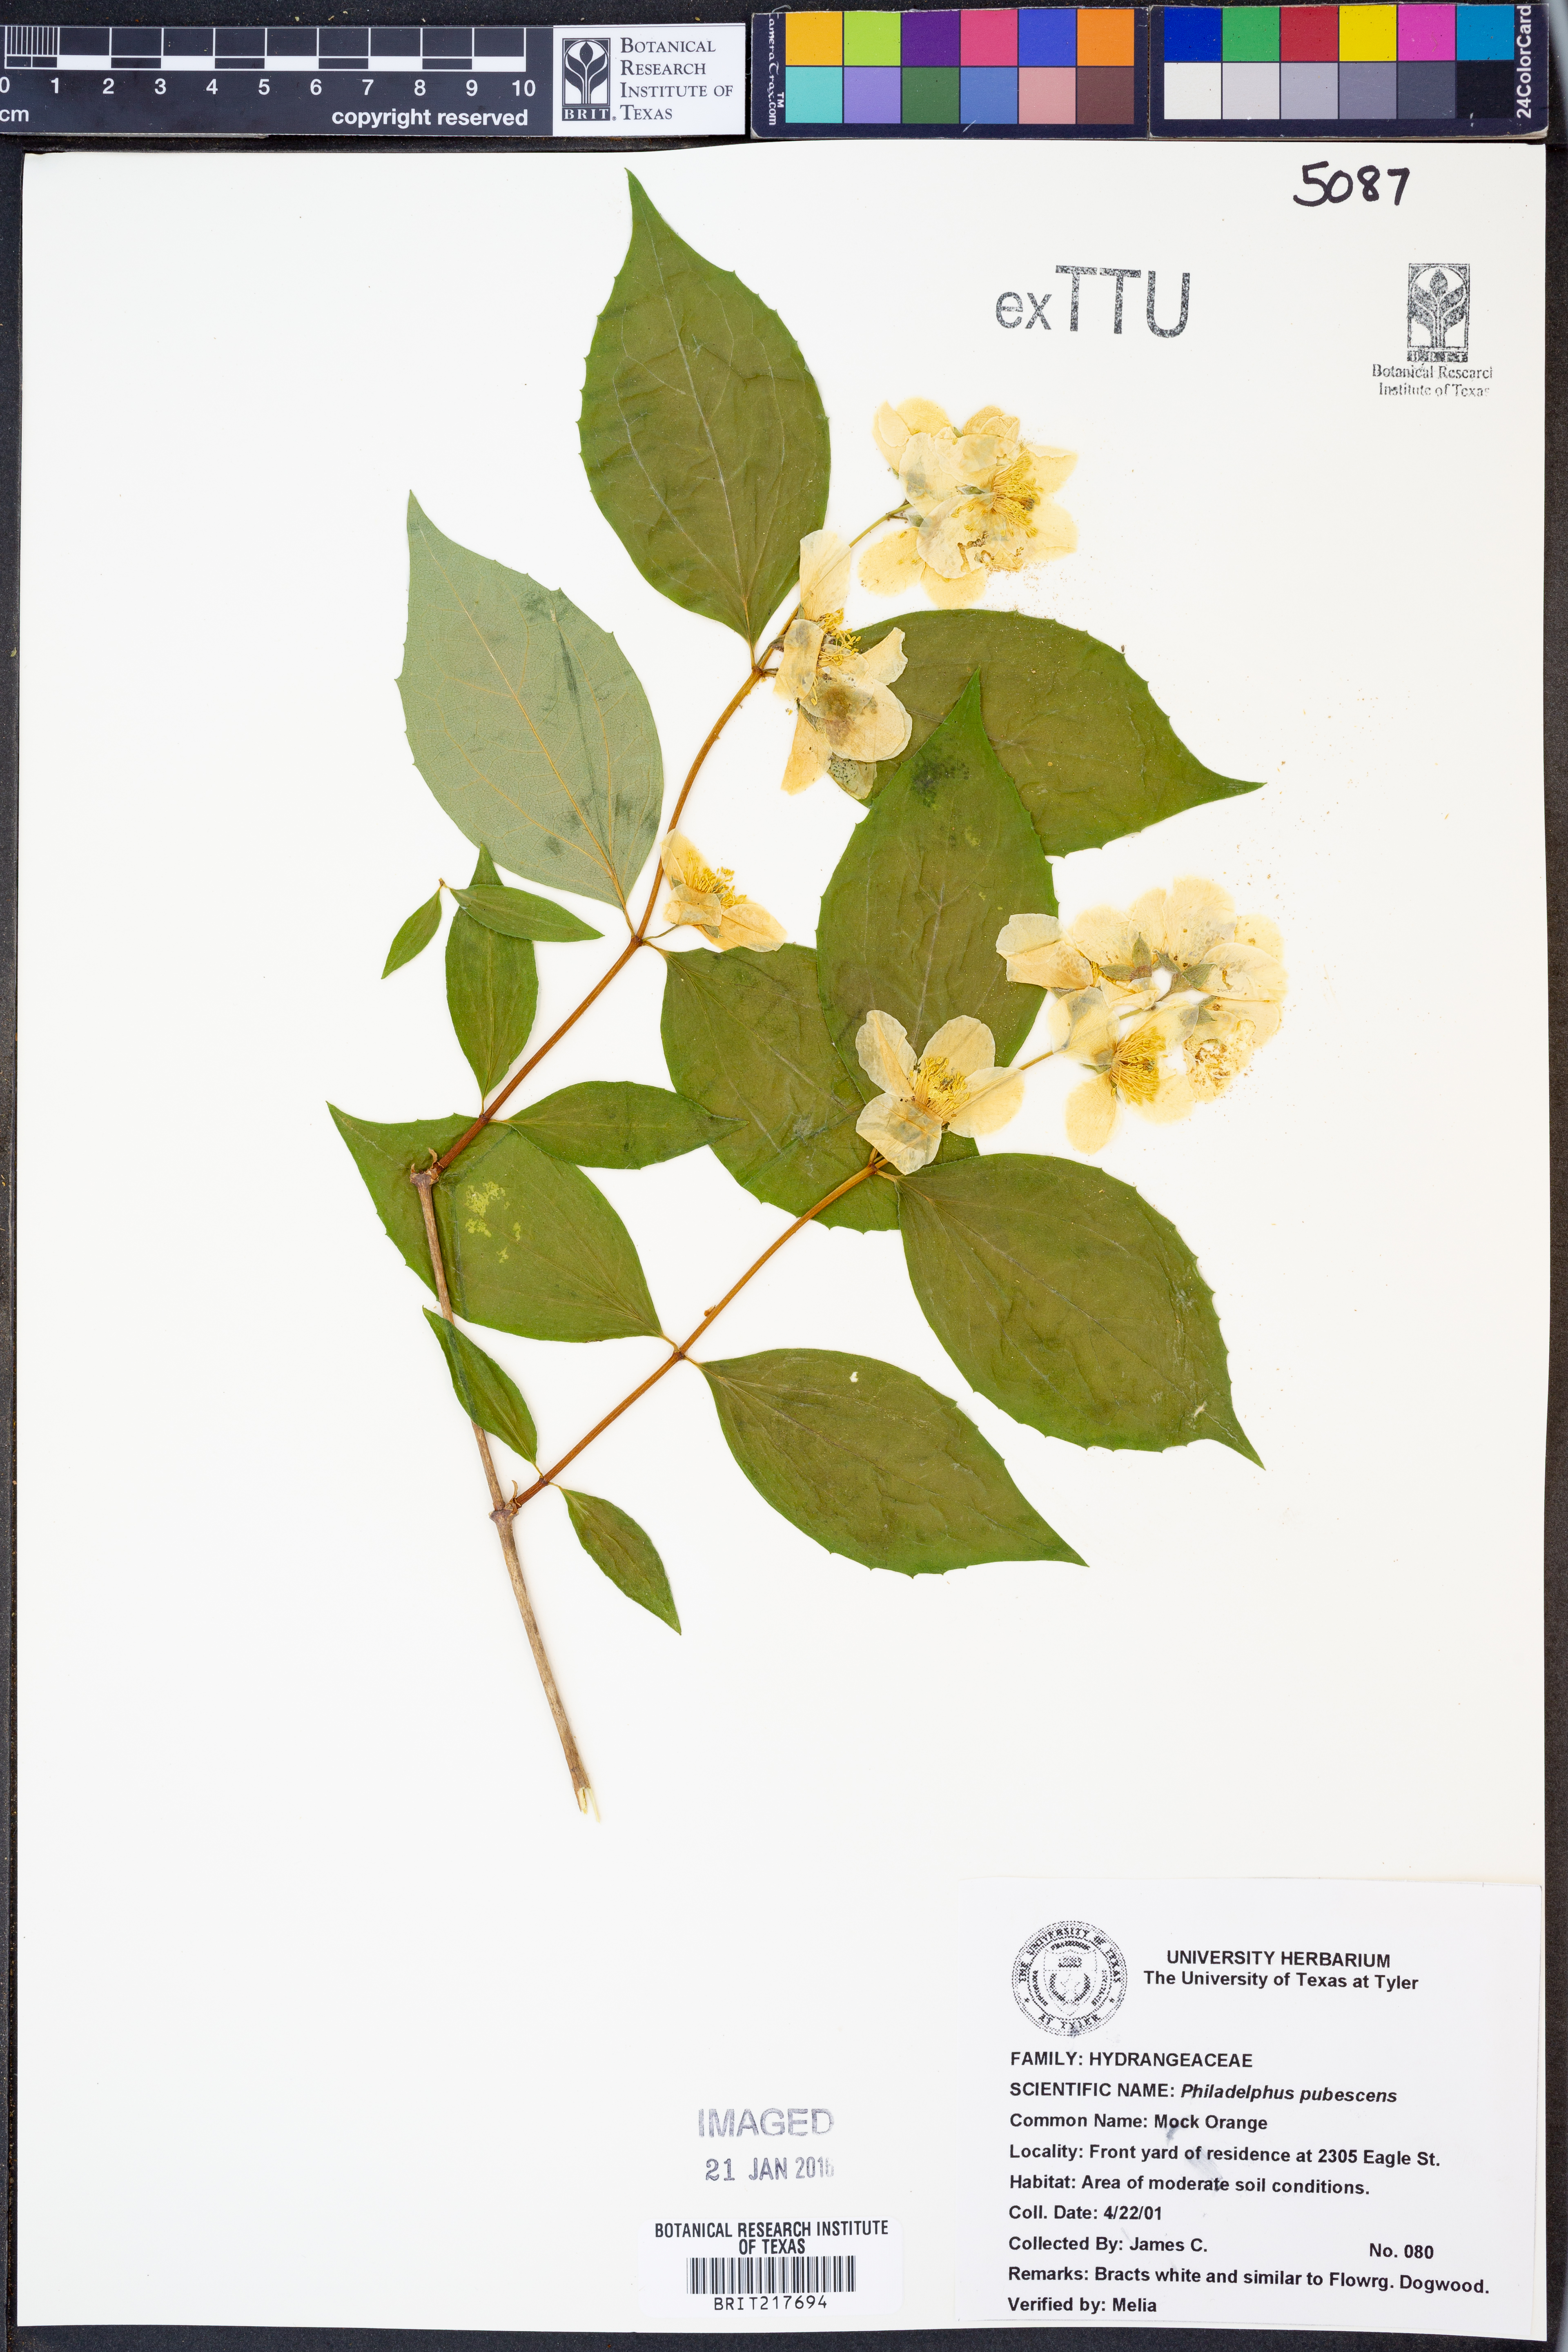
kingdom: Plantae
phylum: Tracheophyta
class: Magnoliopsida
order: Cornales
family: Hydrangeaceae
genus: Philadelphus
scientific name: Philadelphus pubescens
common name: Broadleaf mock orange
